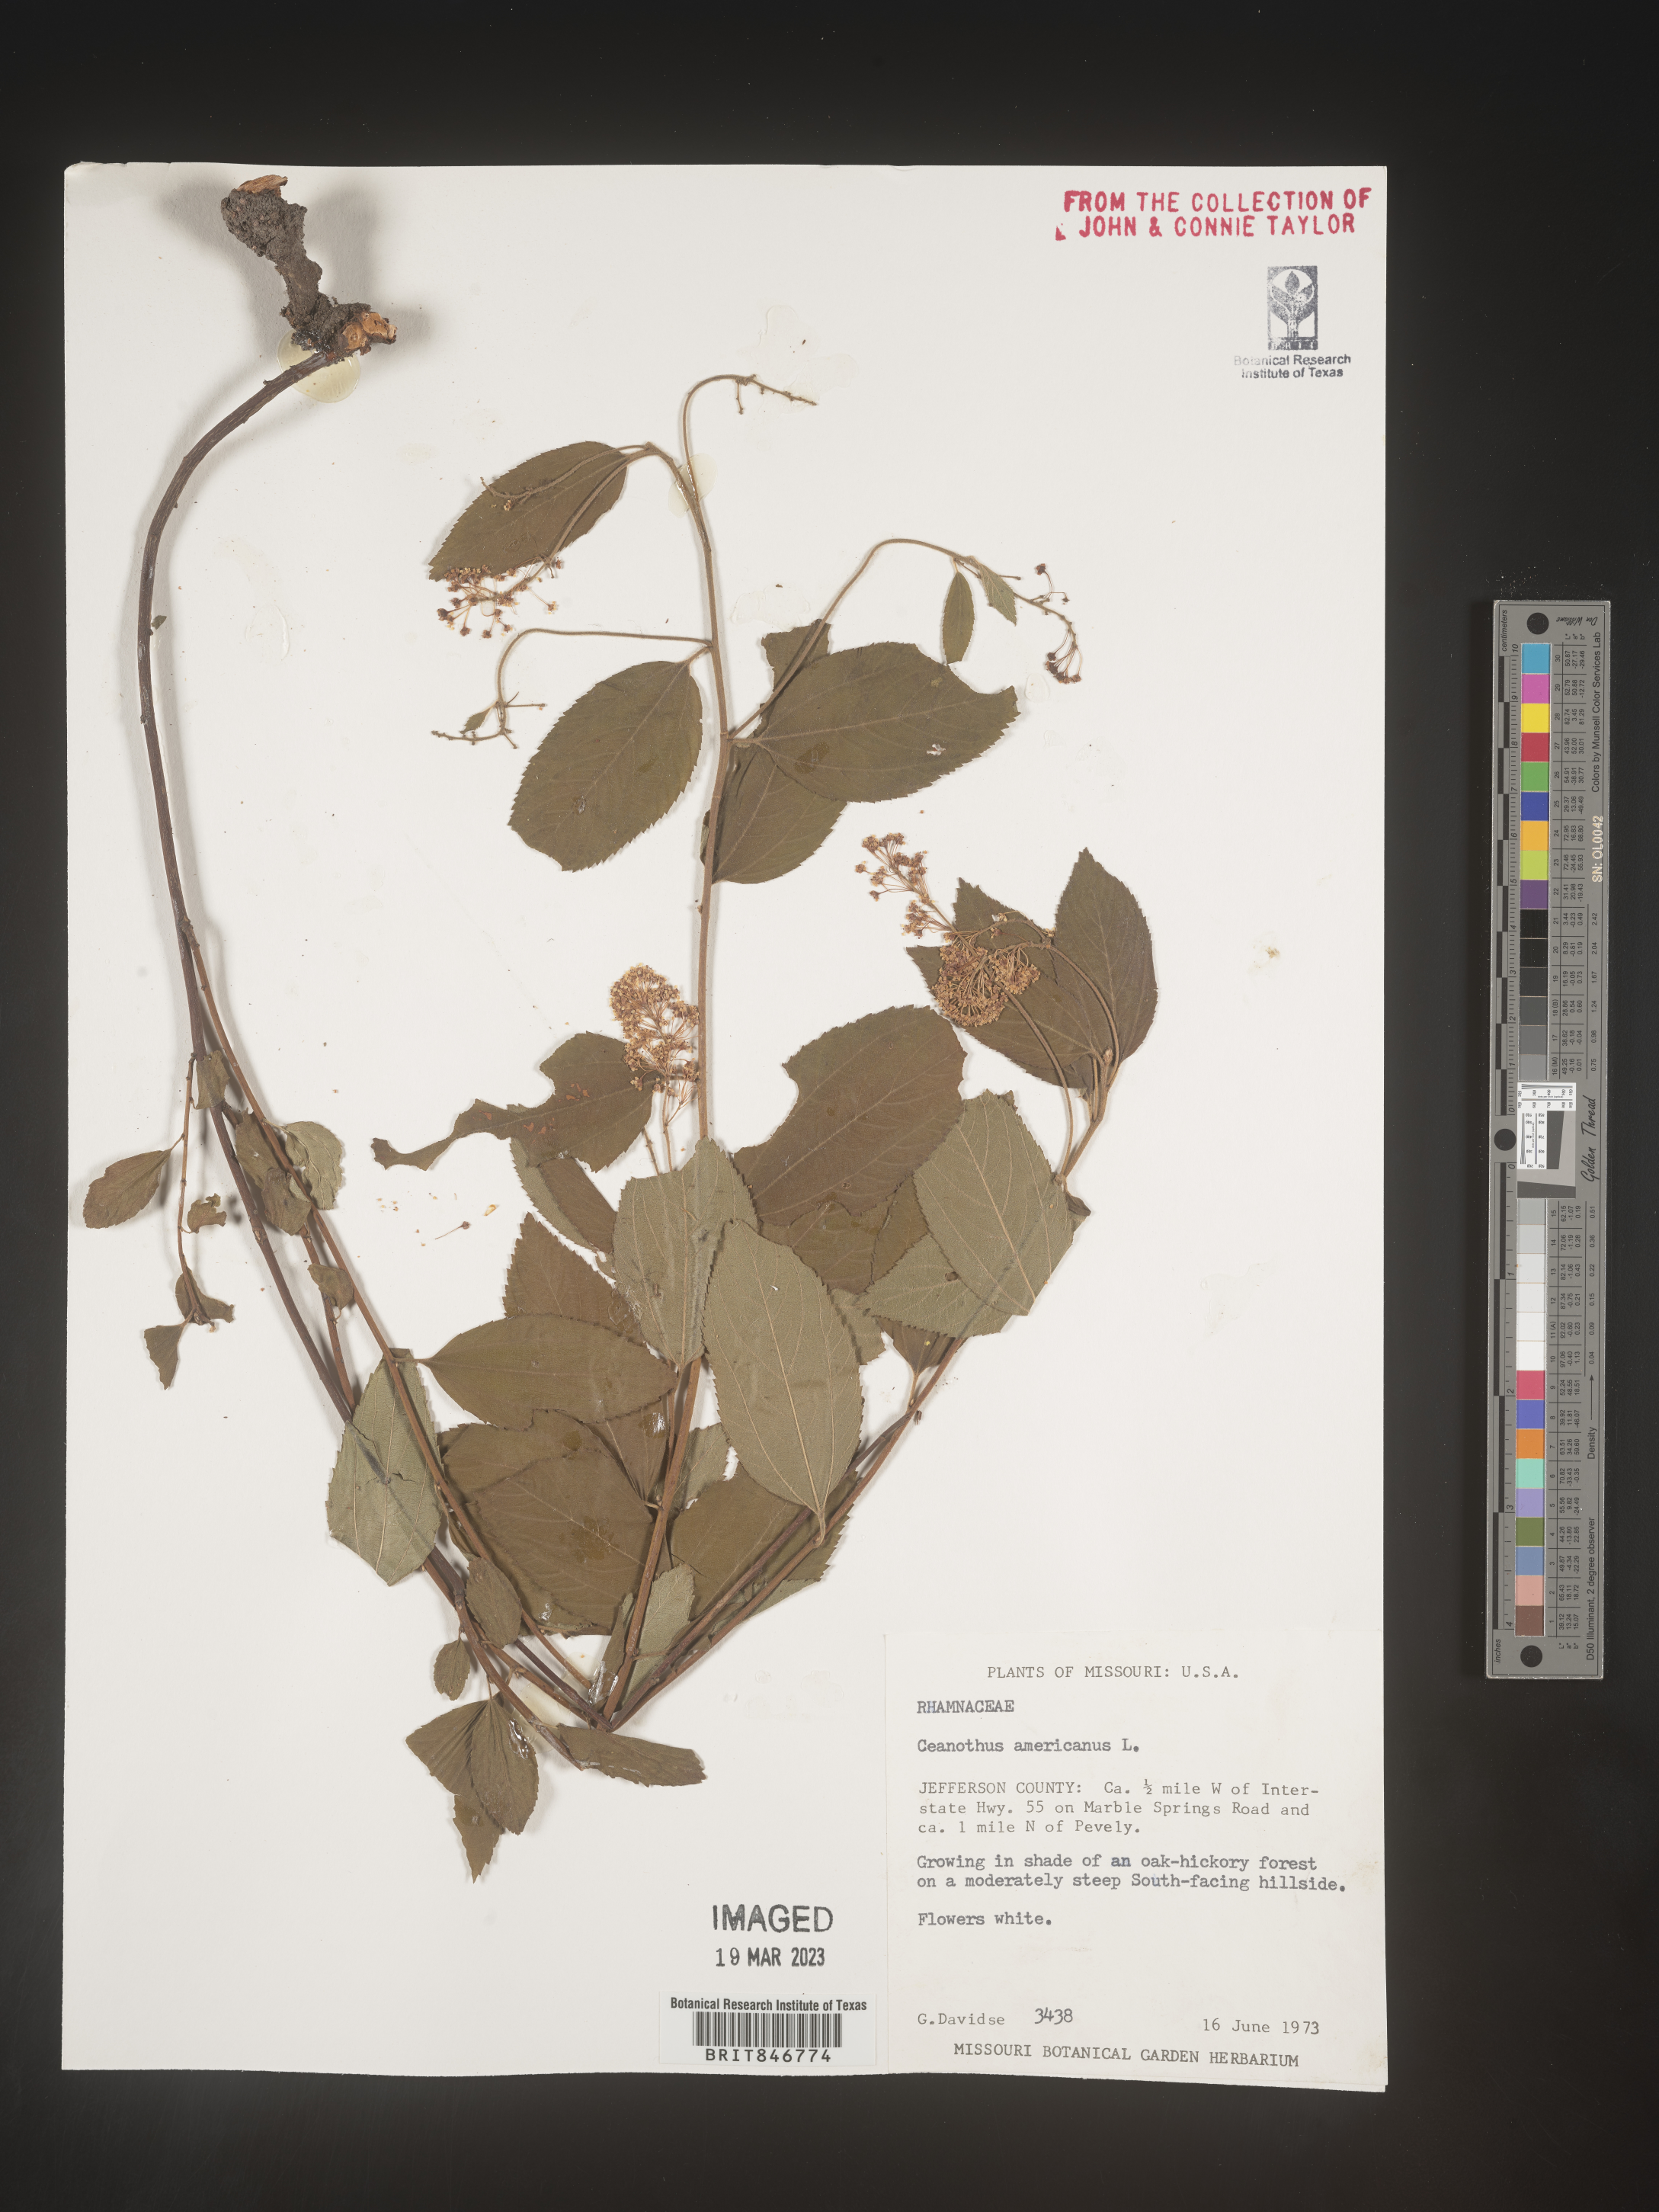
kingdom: Plantae
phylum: Tracheophyta
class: Magnoliopsida
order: Rosales
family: Rhamnaceae
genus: Ceanothus
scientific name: Ceanothus americanus
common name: Redroot
